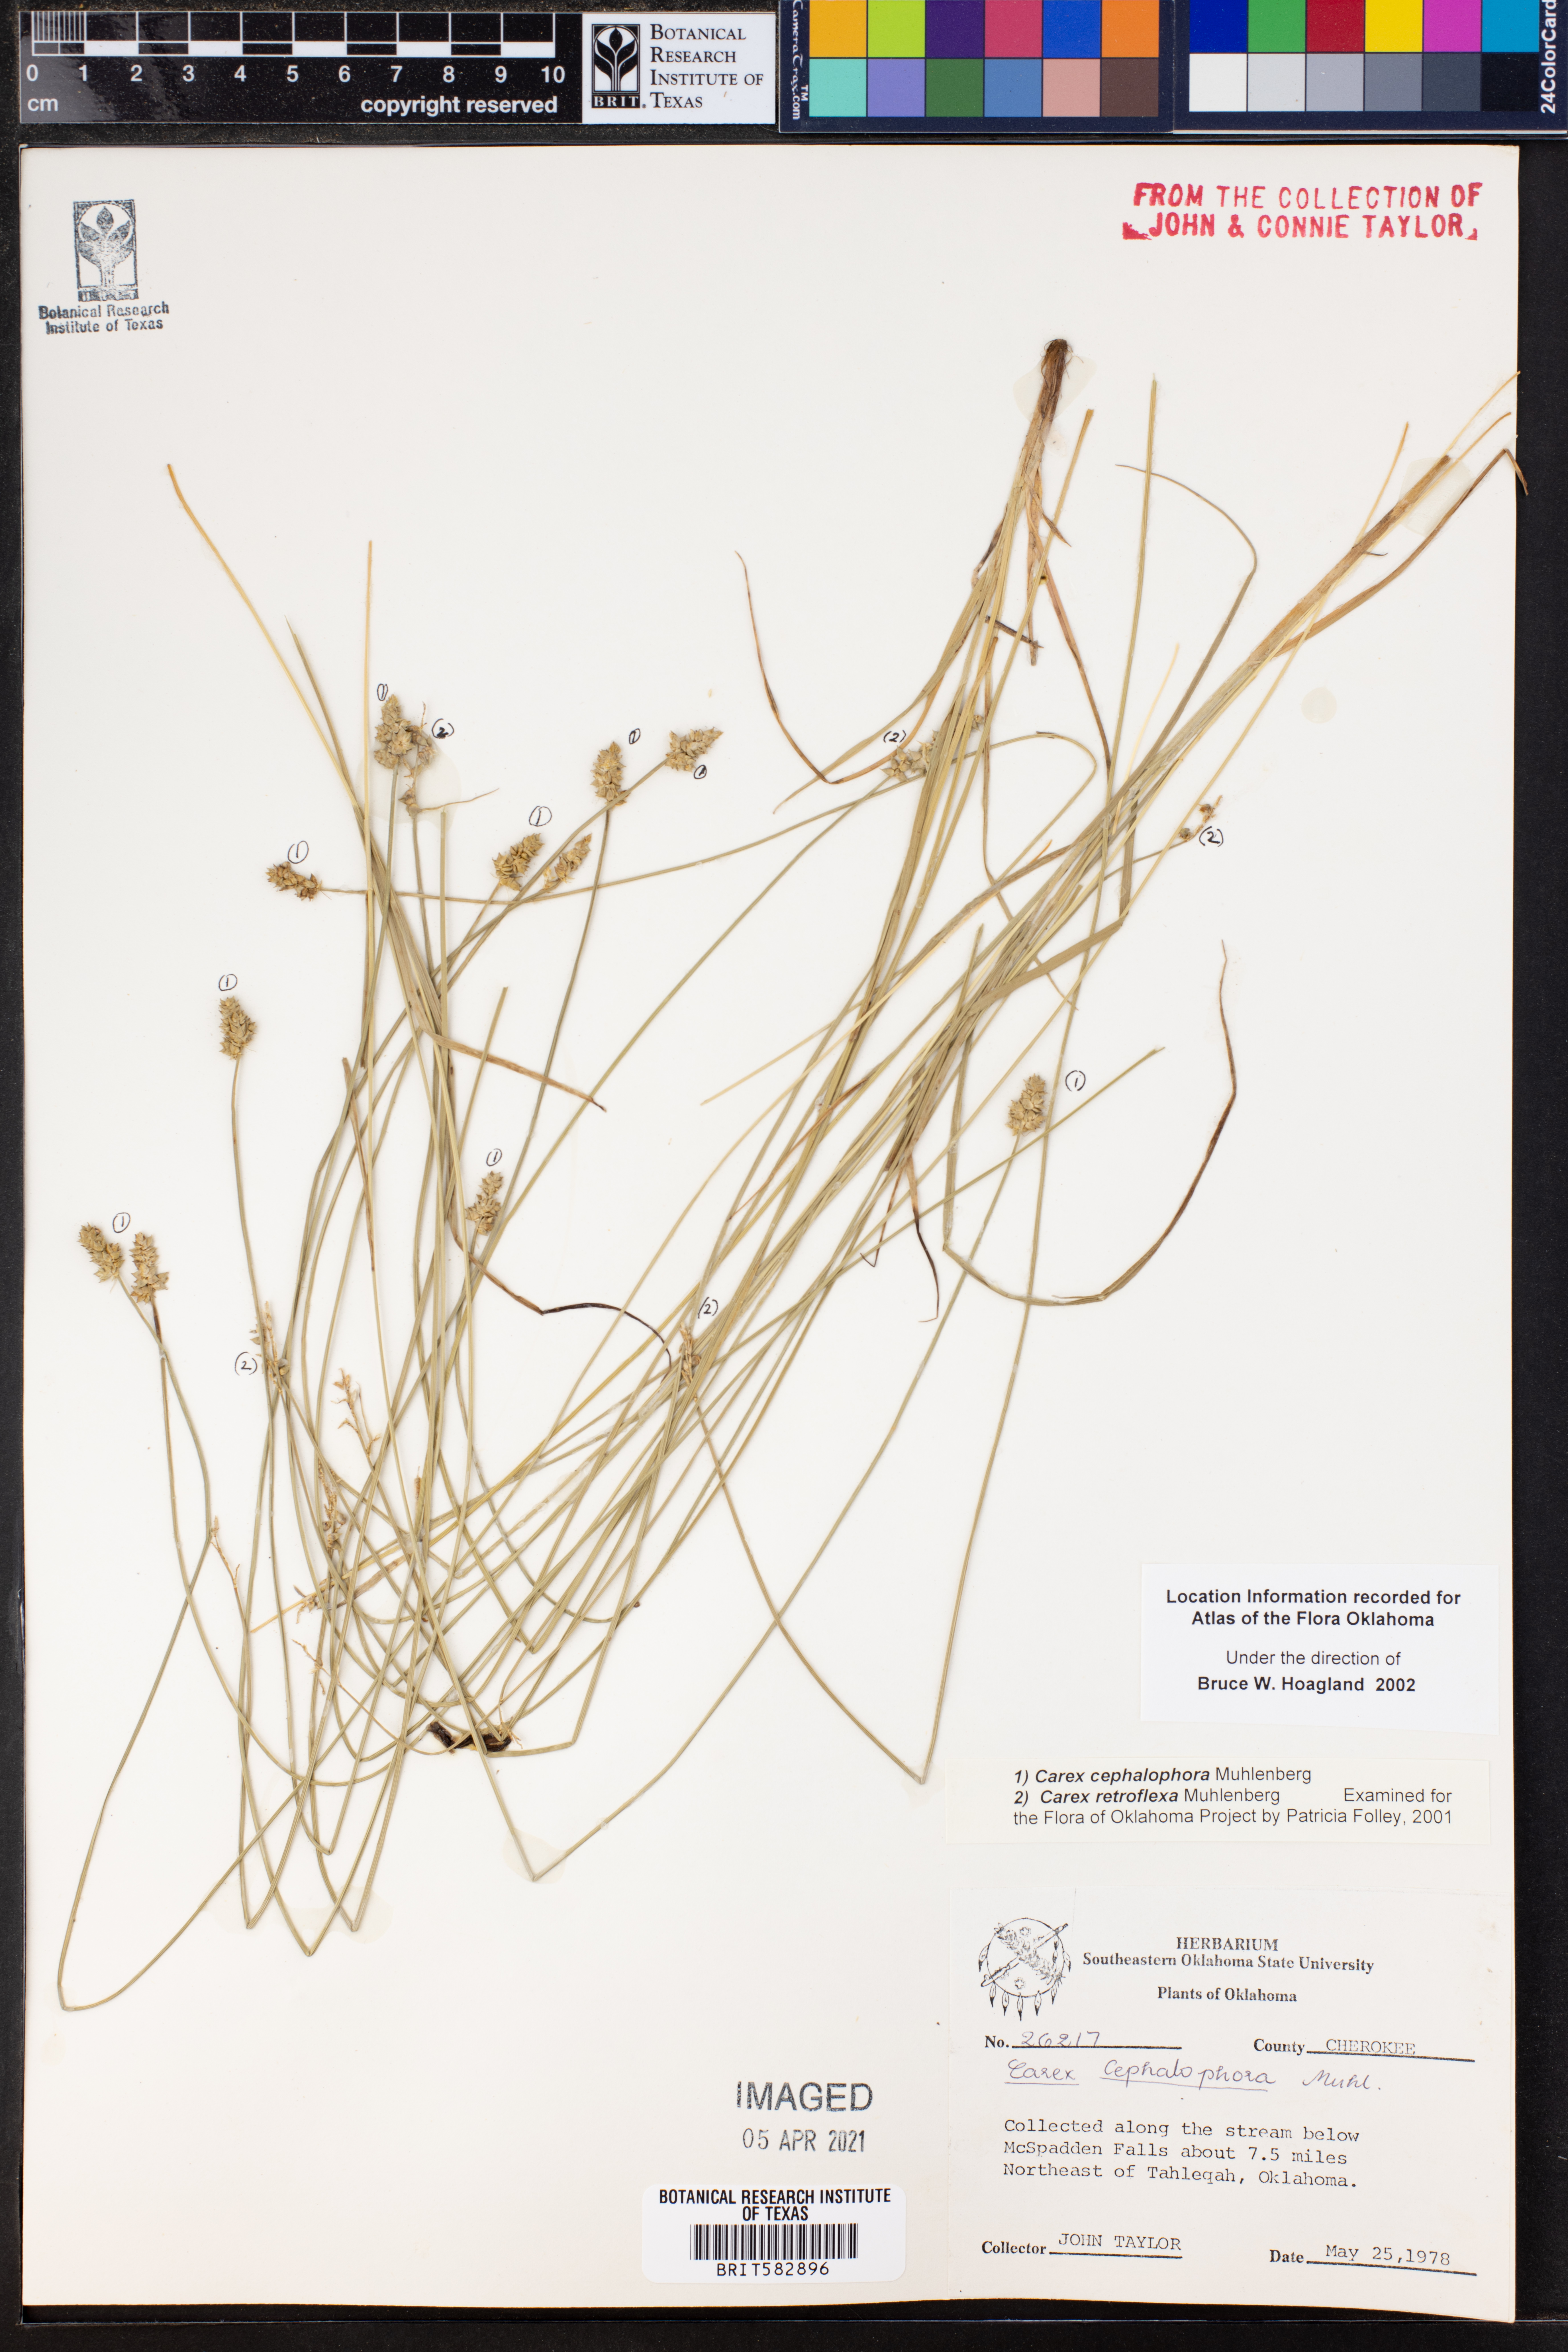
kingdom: Plantae
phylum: Tracheophyta
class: Liliopsida
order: Poales
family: Cyperaceae
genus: Carex
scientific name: Carex cephalophora
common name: Oval-headed sedge
